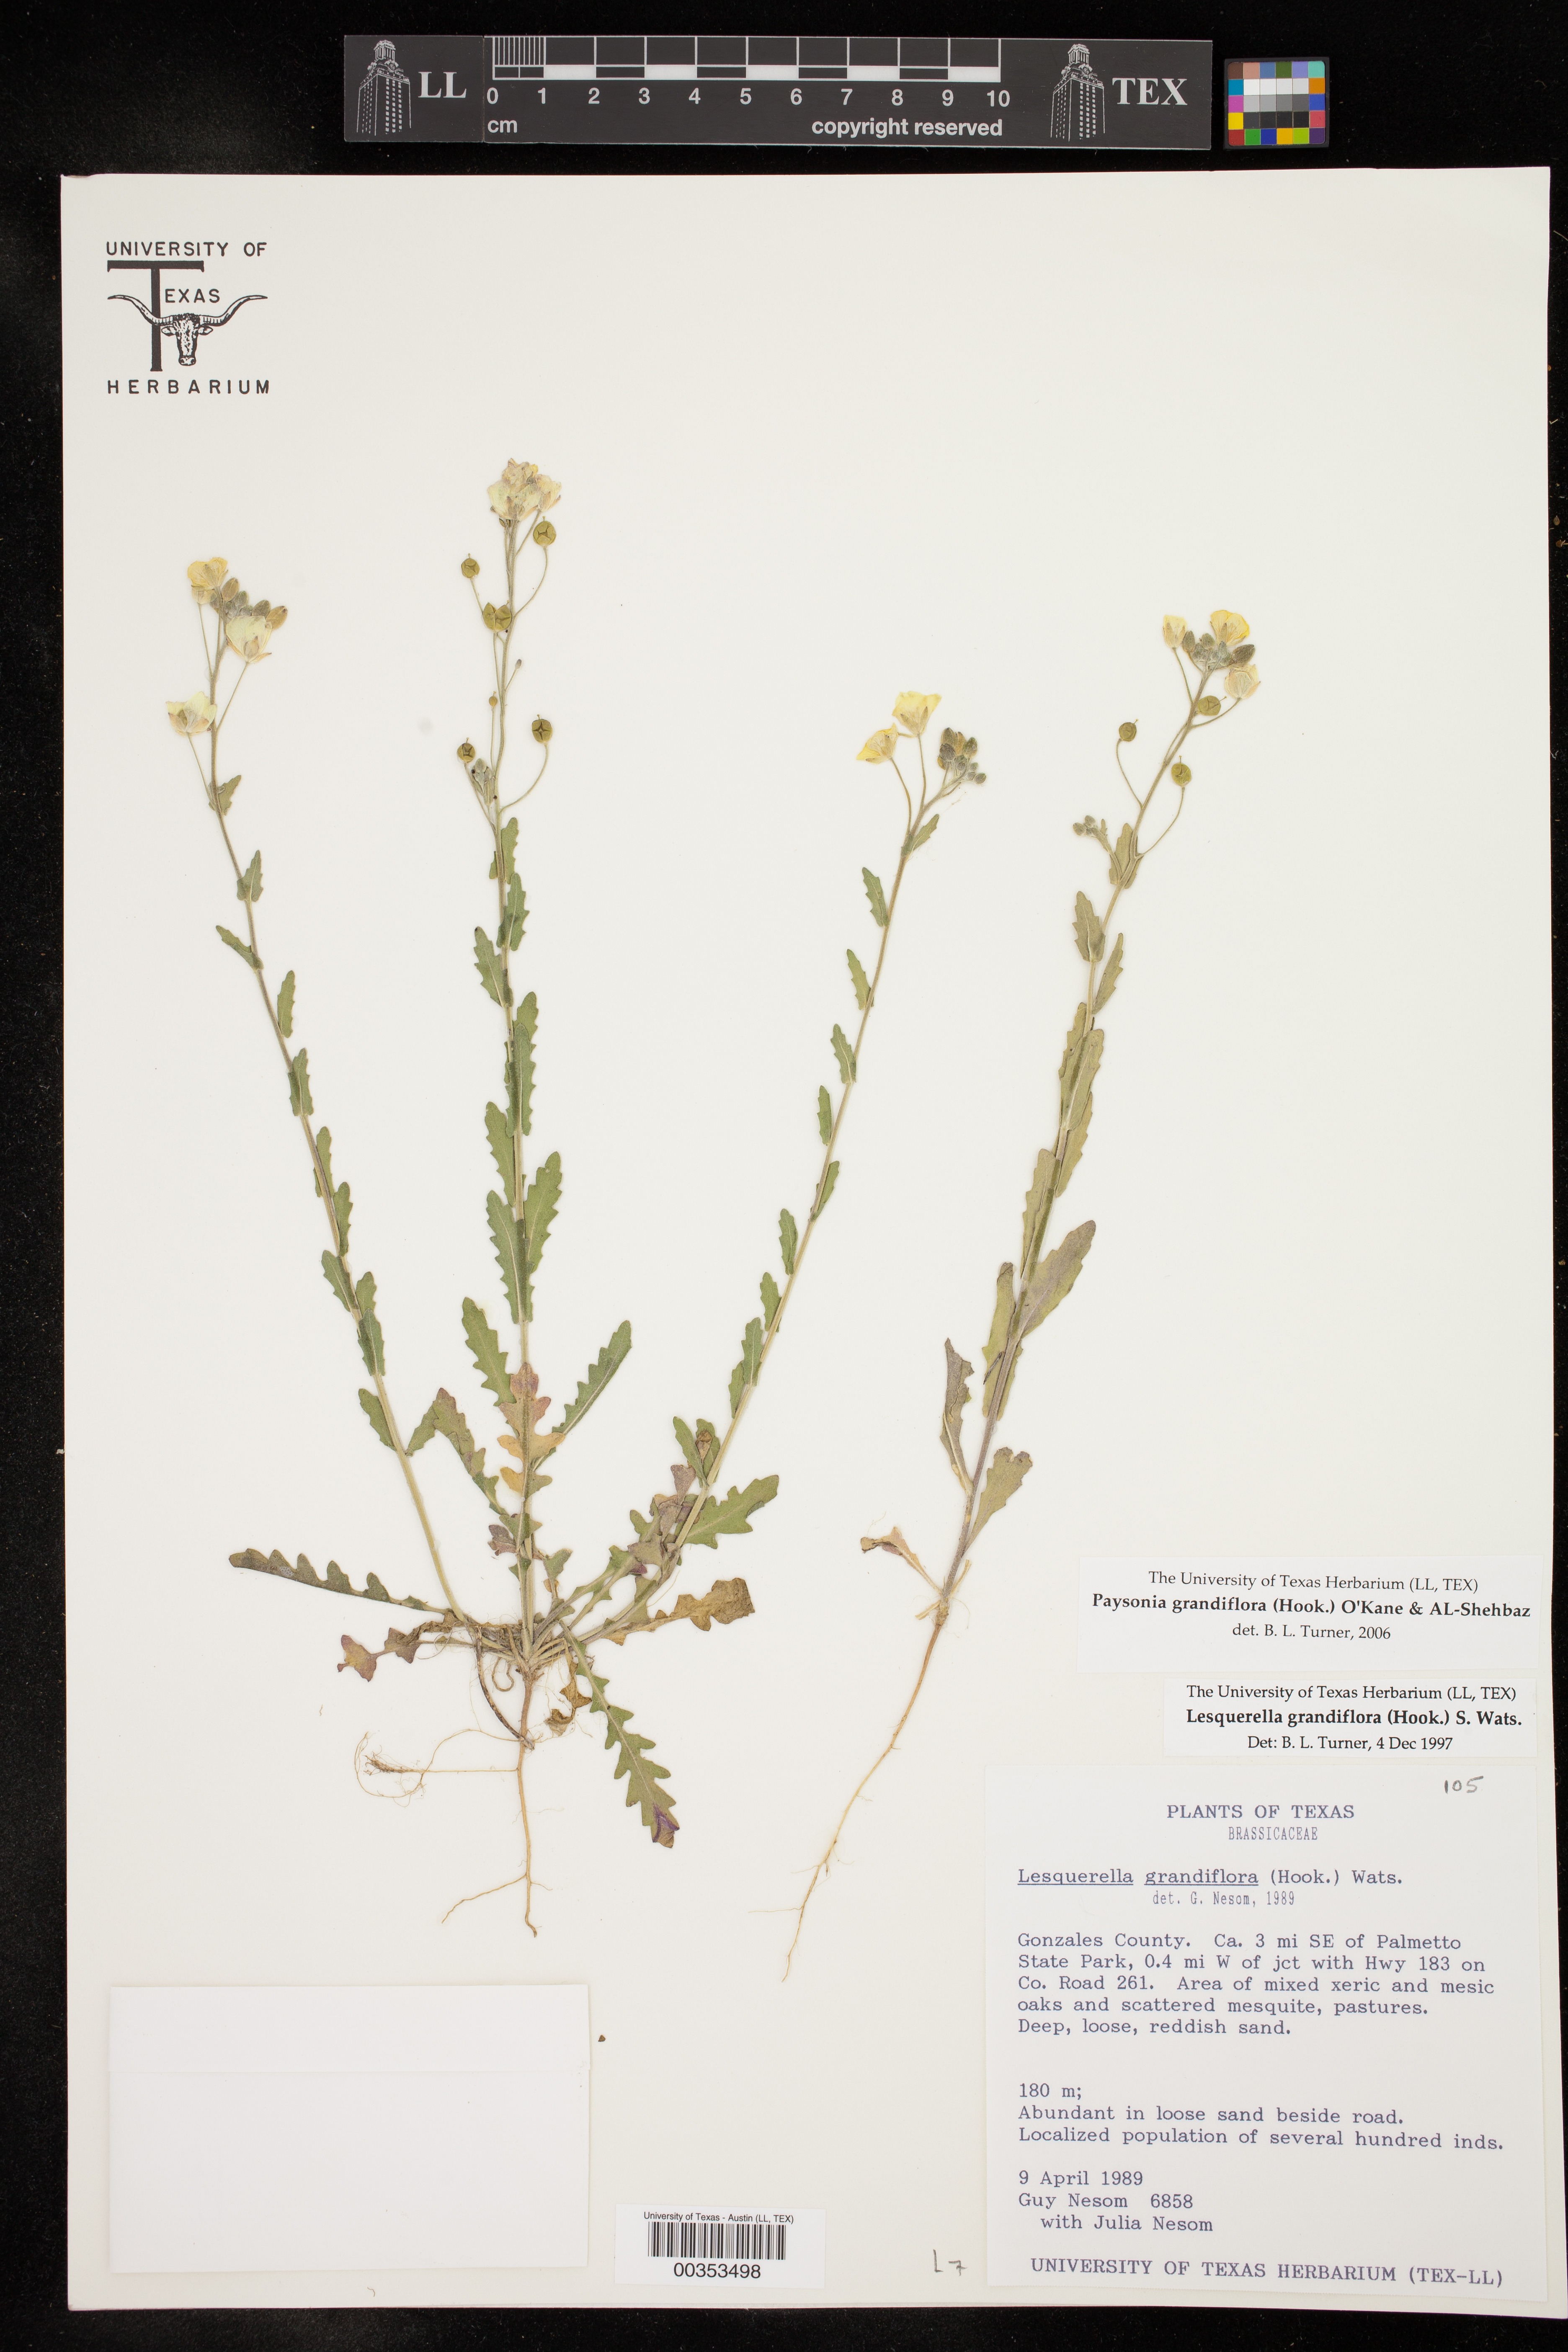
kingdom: Plantae
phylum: Tracheophyta
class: Magnoliopsida
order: Brassicales
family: Brassicaceae
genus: Paysonia
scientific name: Paysonia grandiflora
